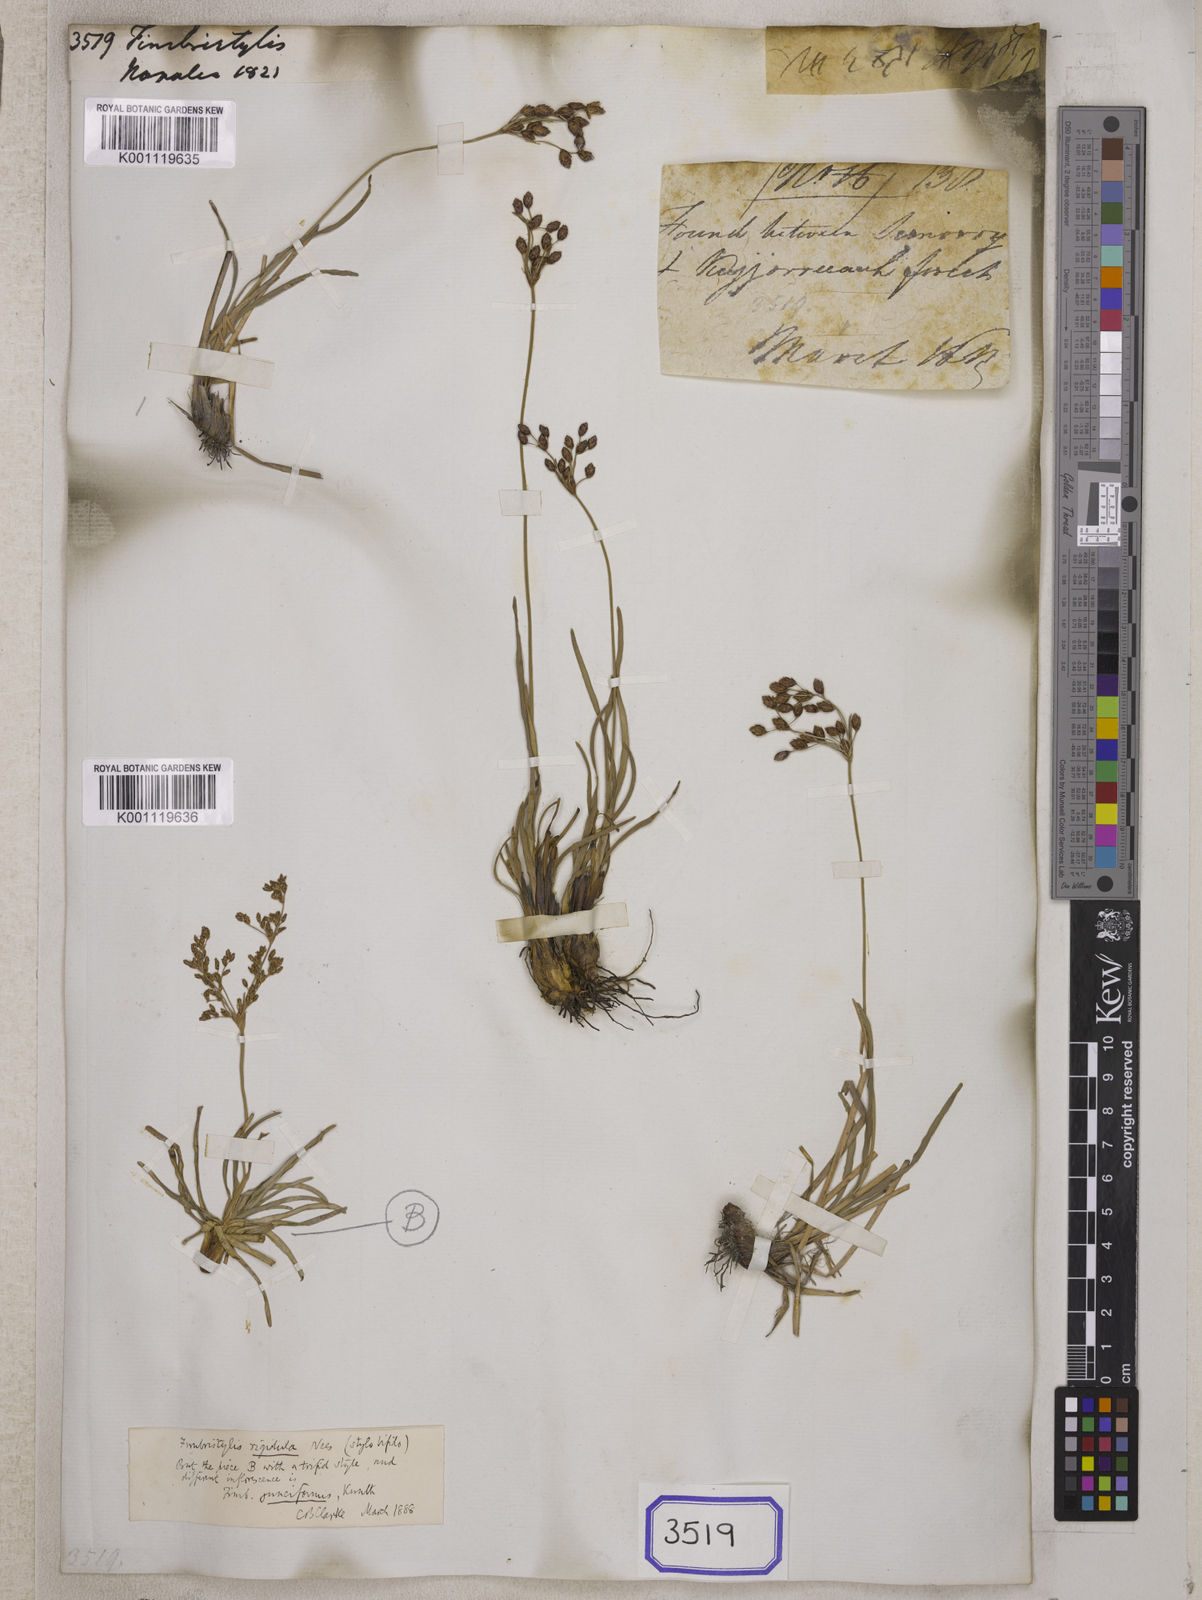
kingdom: Plantae
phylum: Tracheophyta
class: Liliopsida
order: Poales
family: Cyperaceae
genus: Fimbristylis
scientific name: Fimbristylis
